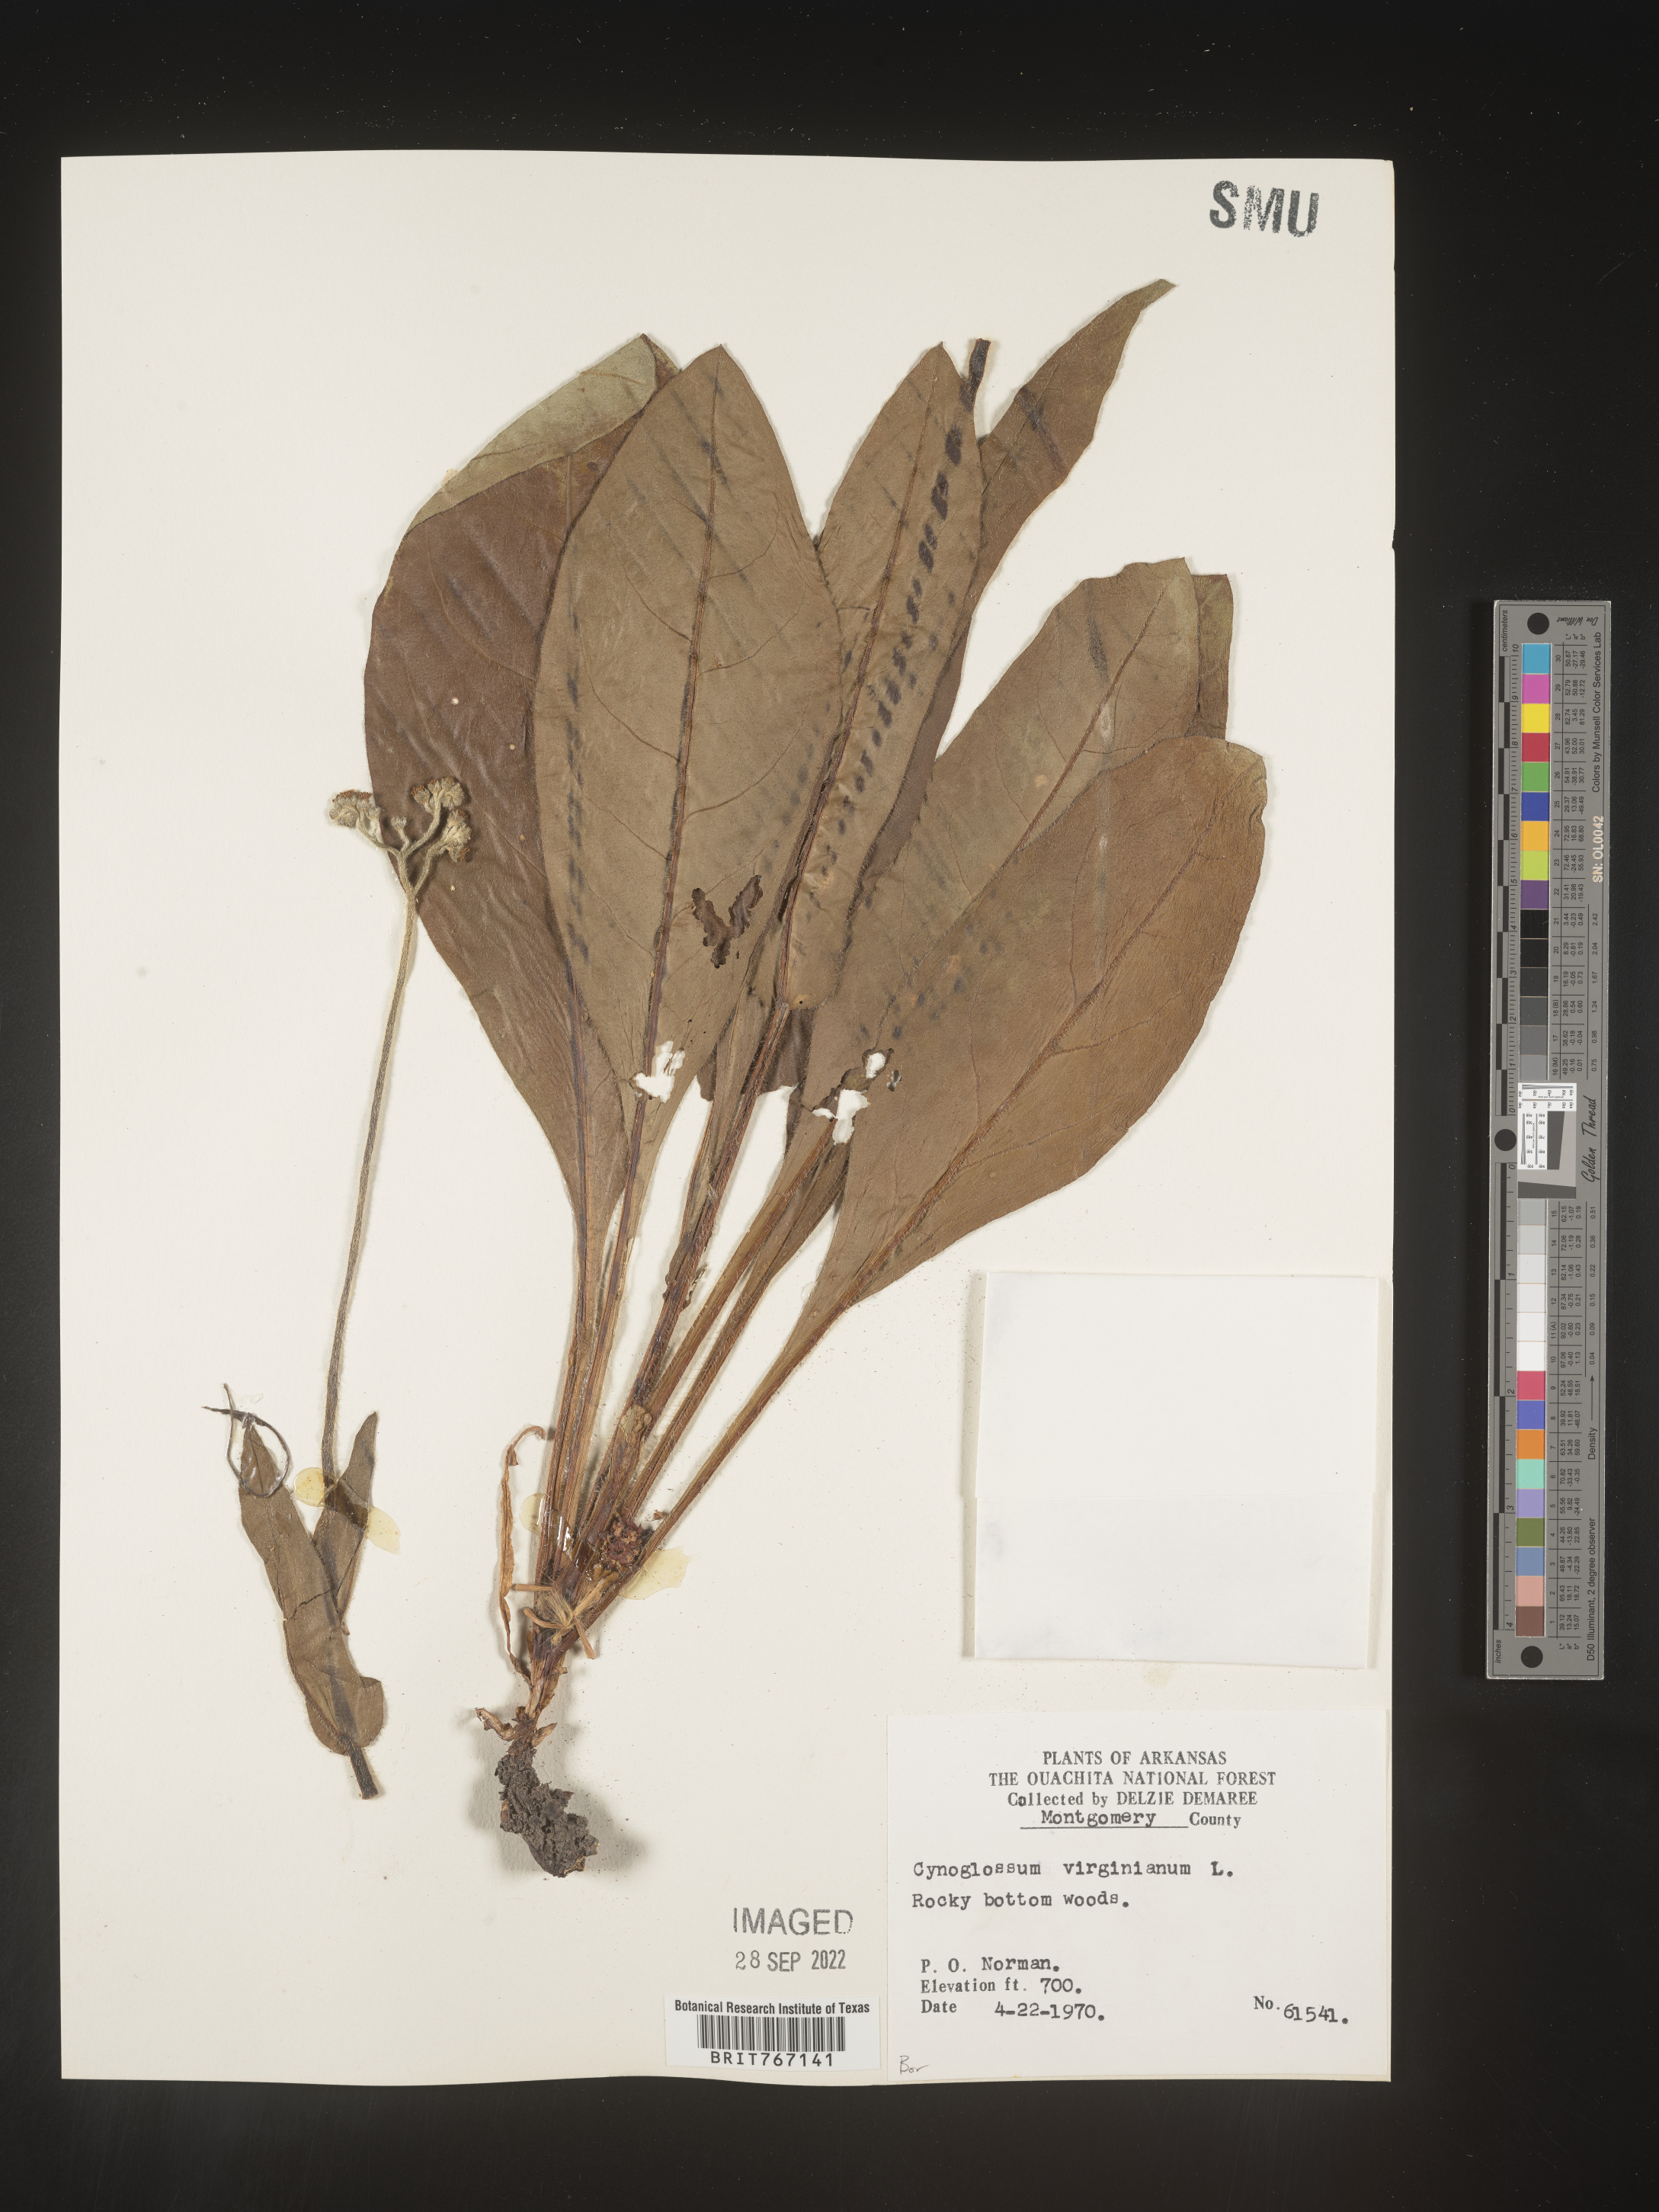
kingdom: Plantae
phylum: Tracheophyta
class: Magnoliopsida
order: Boraginales
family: Boraginaceae
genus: Andersonglossum
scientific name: Andersonglossum virginianum
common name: Wild comfrey
